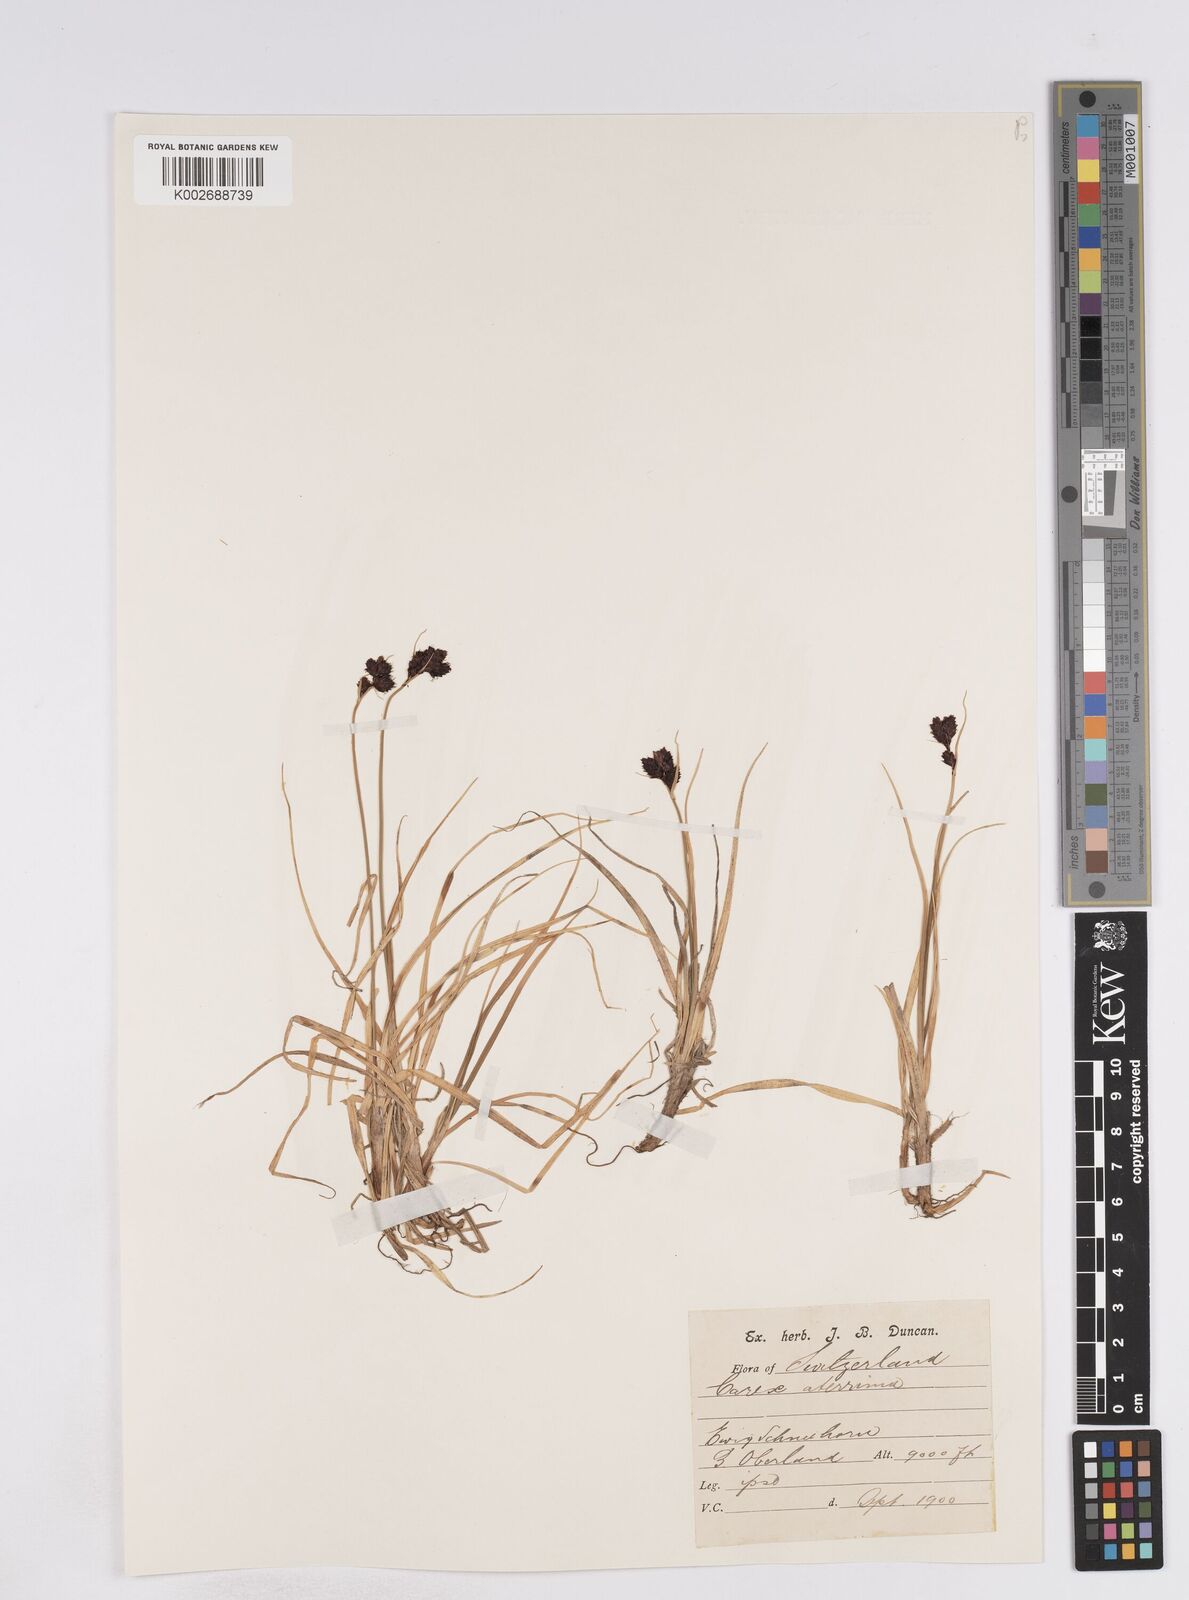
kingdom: Plantae
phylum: Tracheophyta
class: Liliopsida
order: Poales
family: Cyperaceae
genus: Carex
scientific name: Carex parviflora
